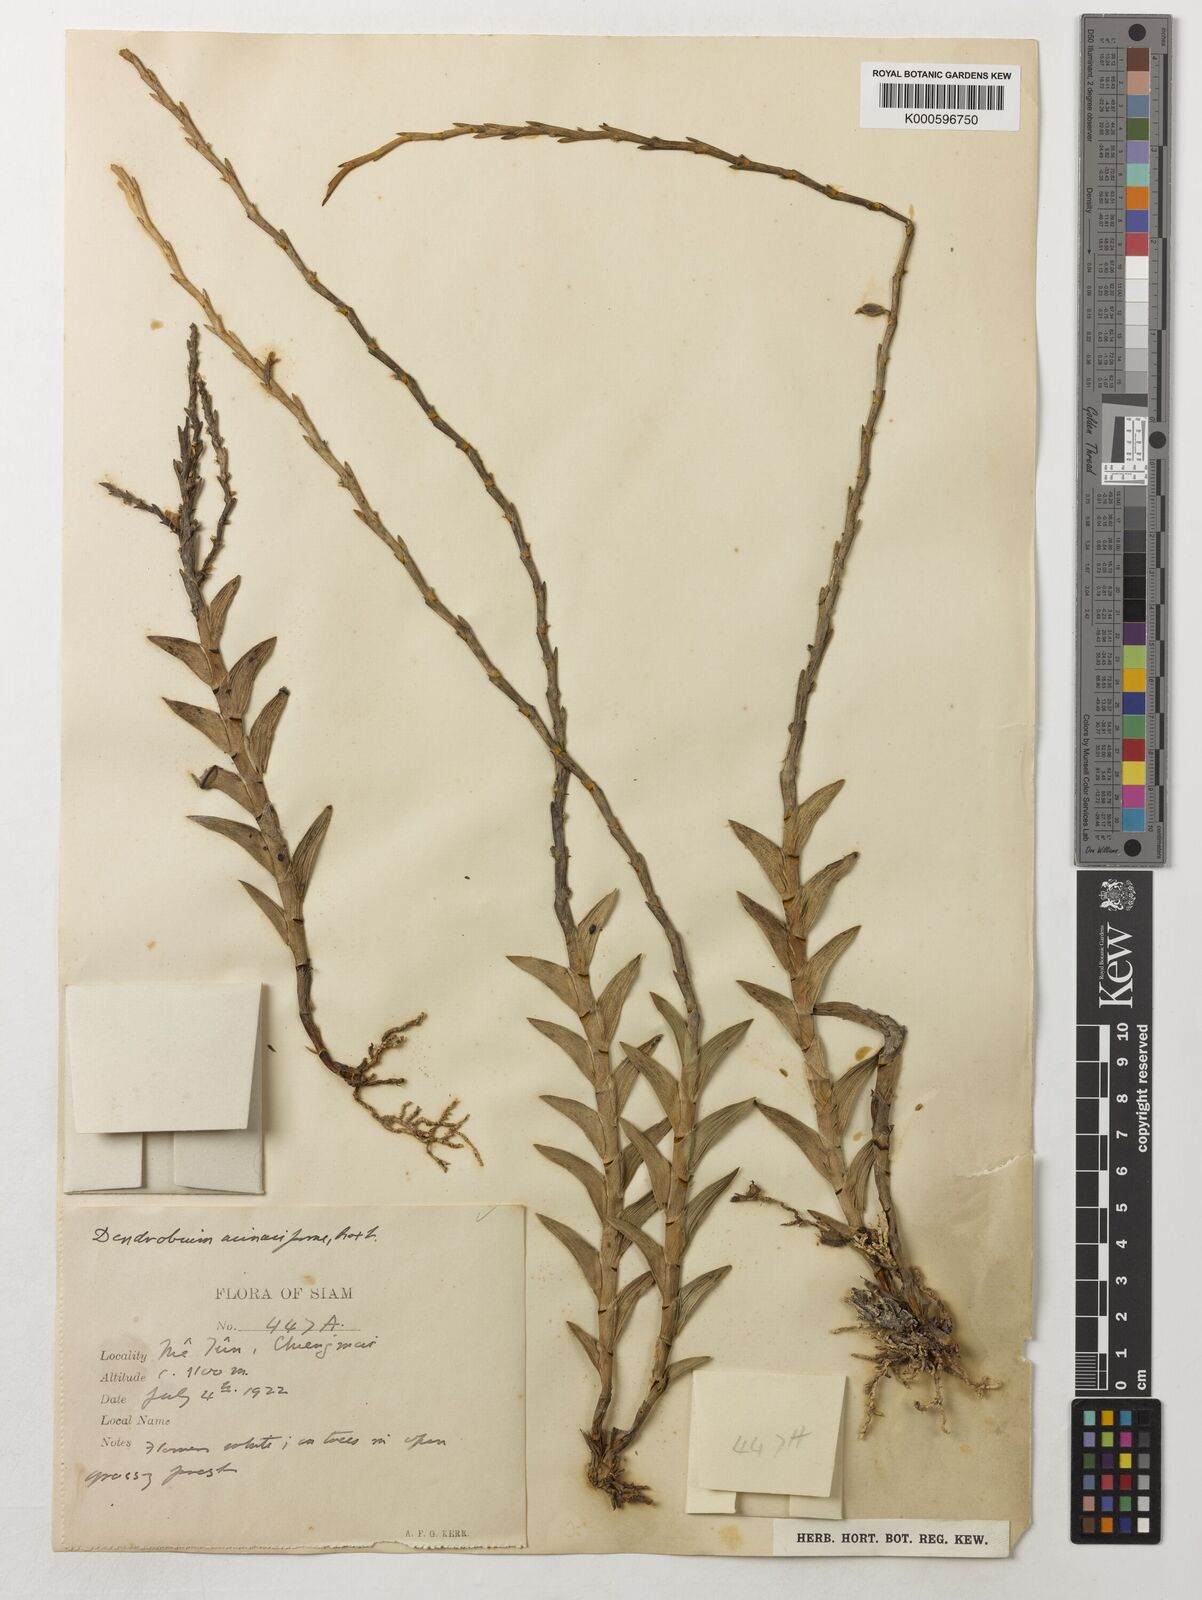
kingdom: Plantae
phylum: Tracheophyta
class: Liliopsida
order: Asparagales
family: Orchidaceae
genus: Dendrobium
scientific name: Dendrobium acinaciforme
